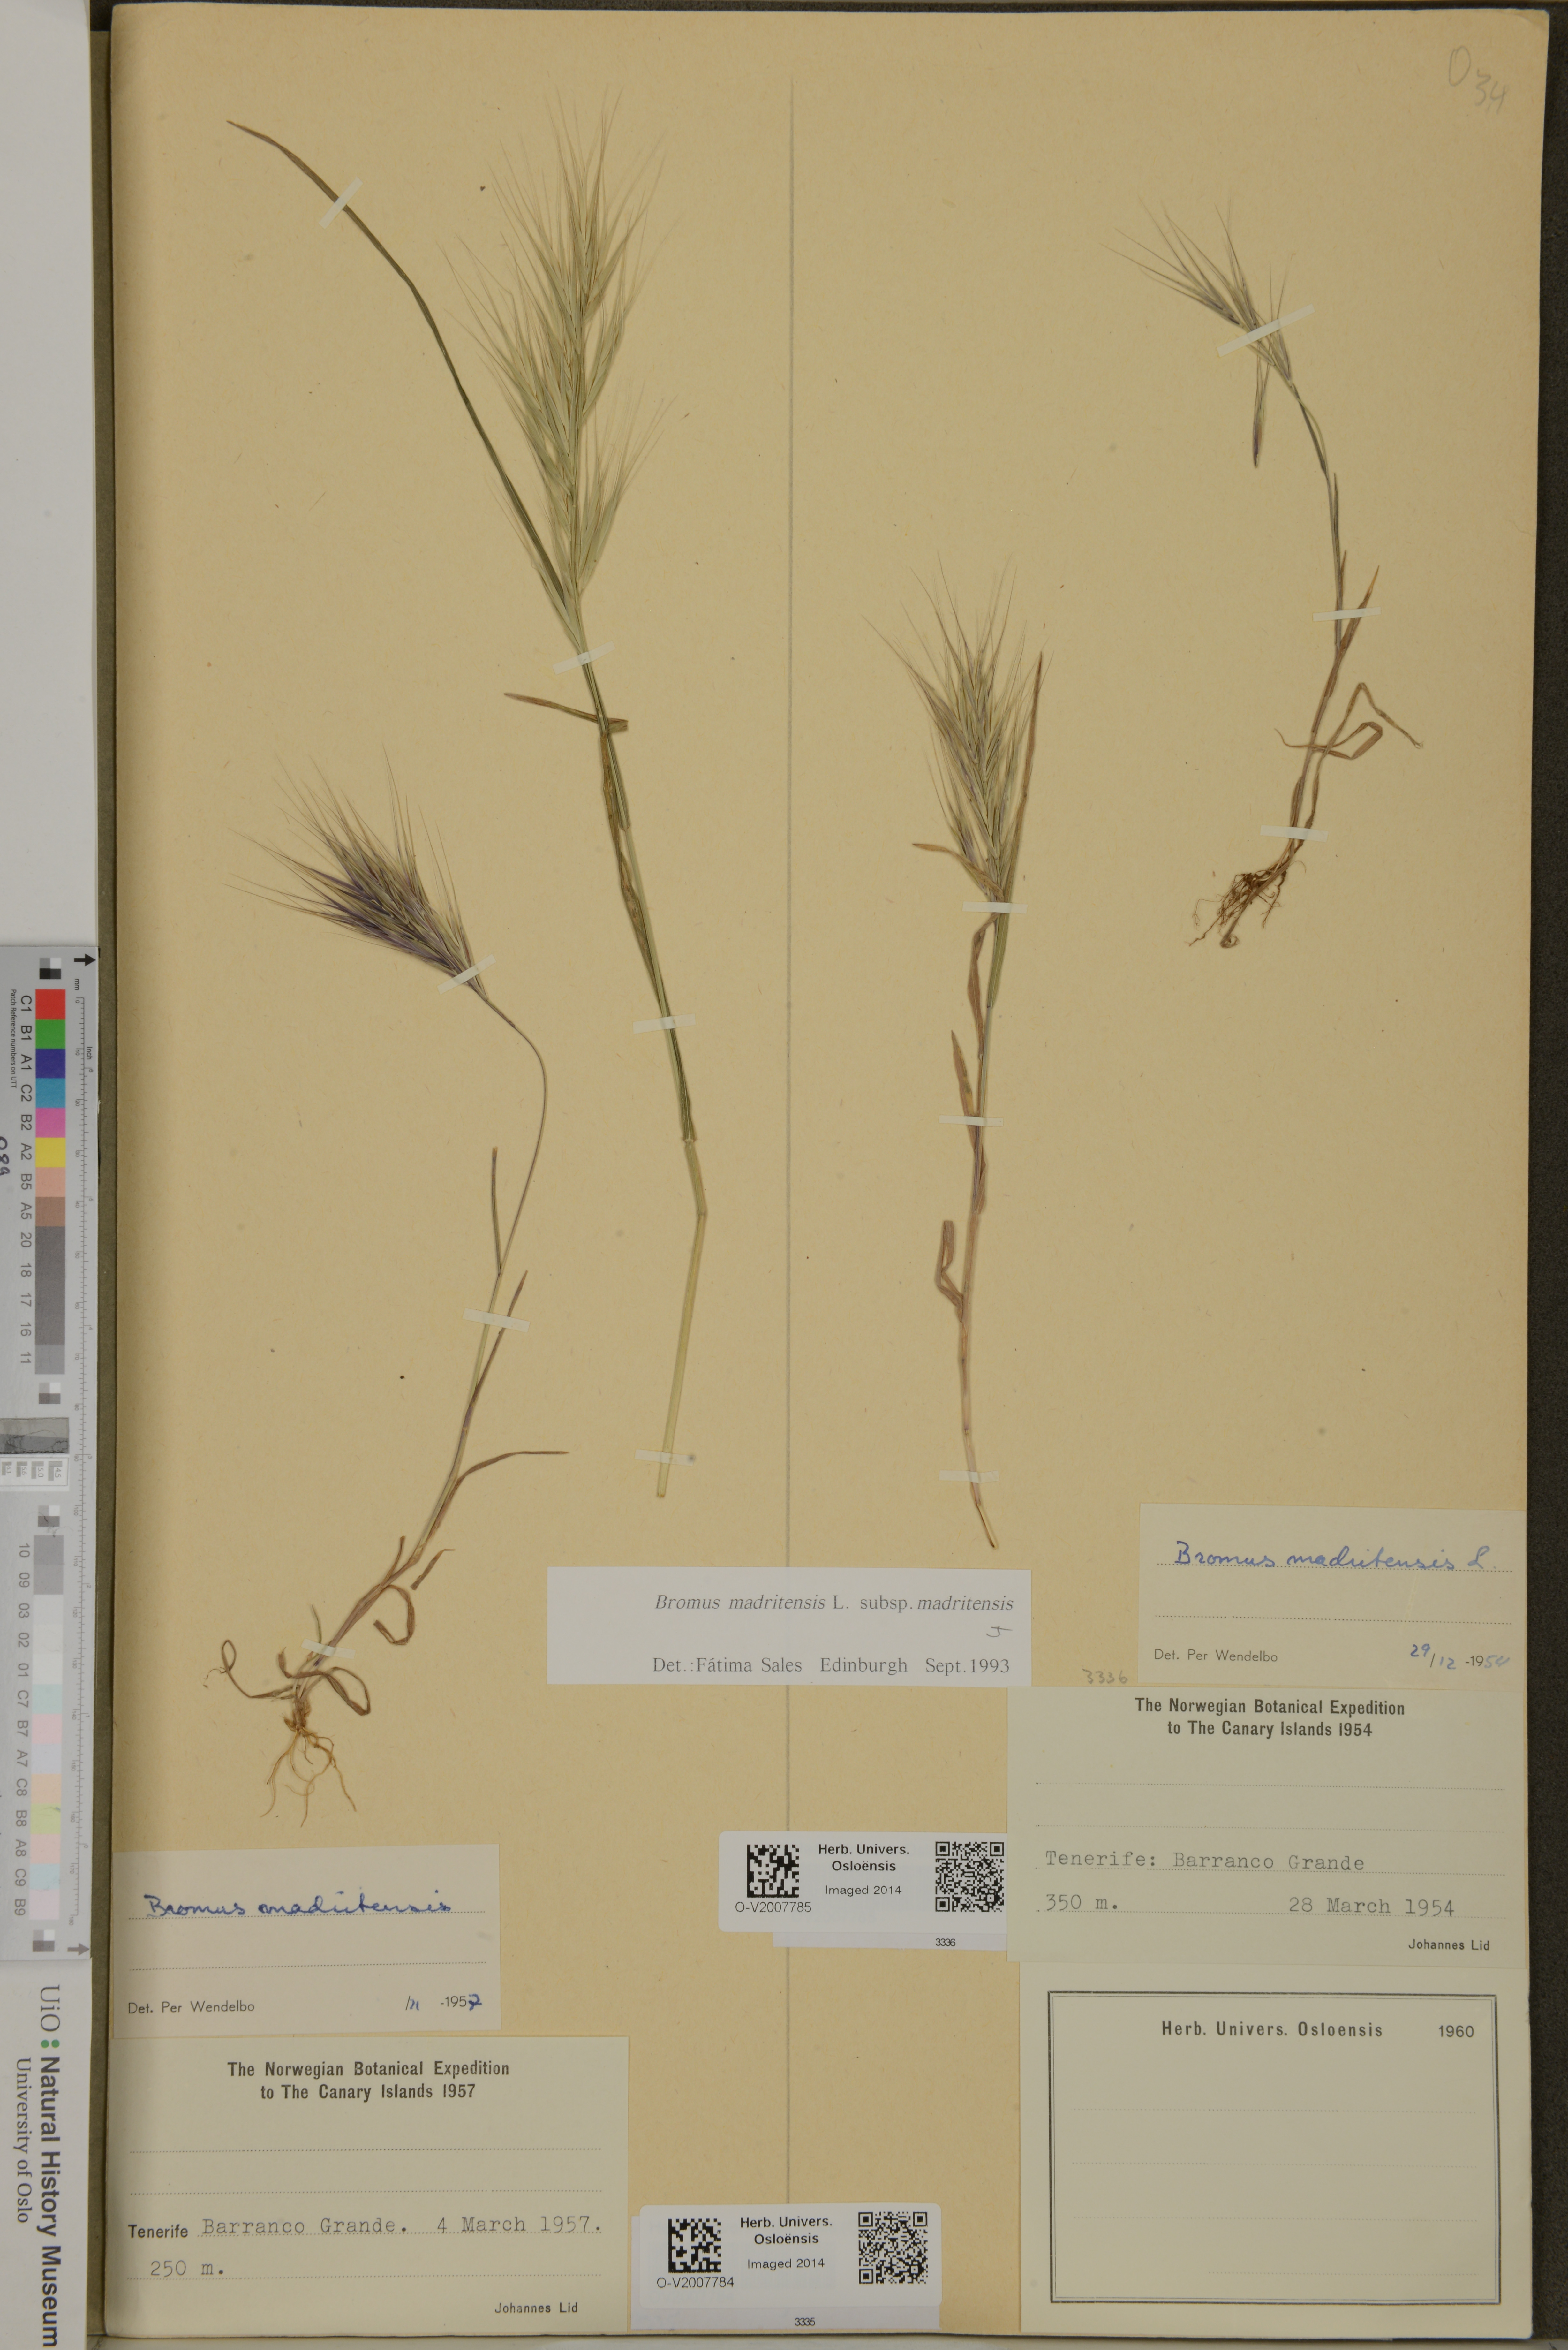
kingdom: Plantae
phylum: Tracheophyta
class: Liliopsida
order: Poales
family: Poaceae
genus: Bromus
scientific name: Bromus madritensis
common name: Compact brome
